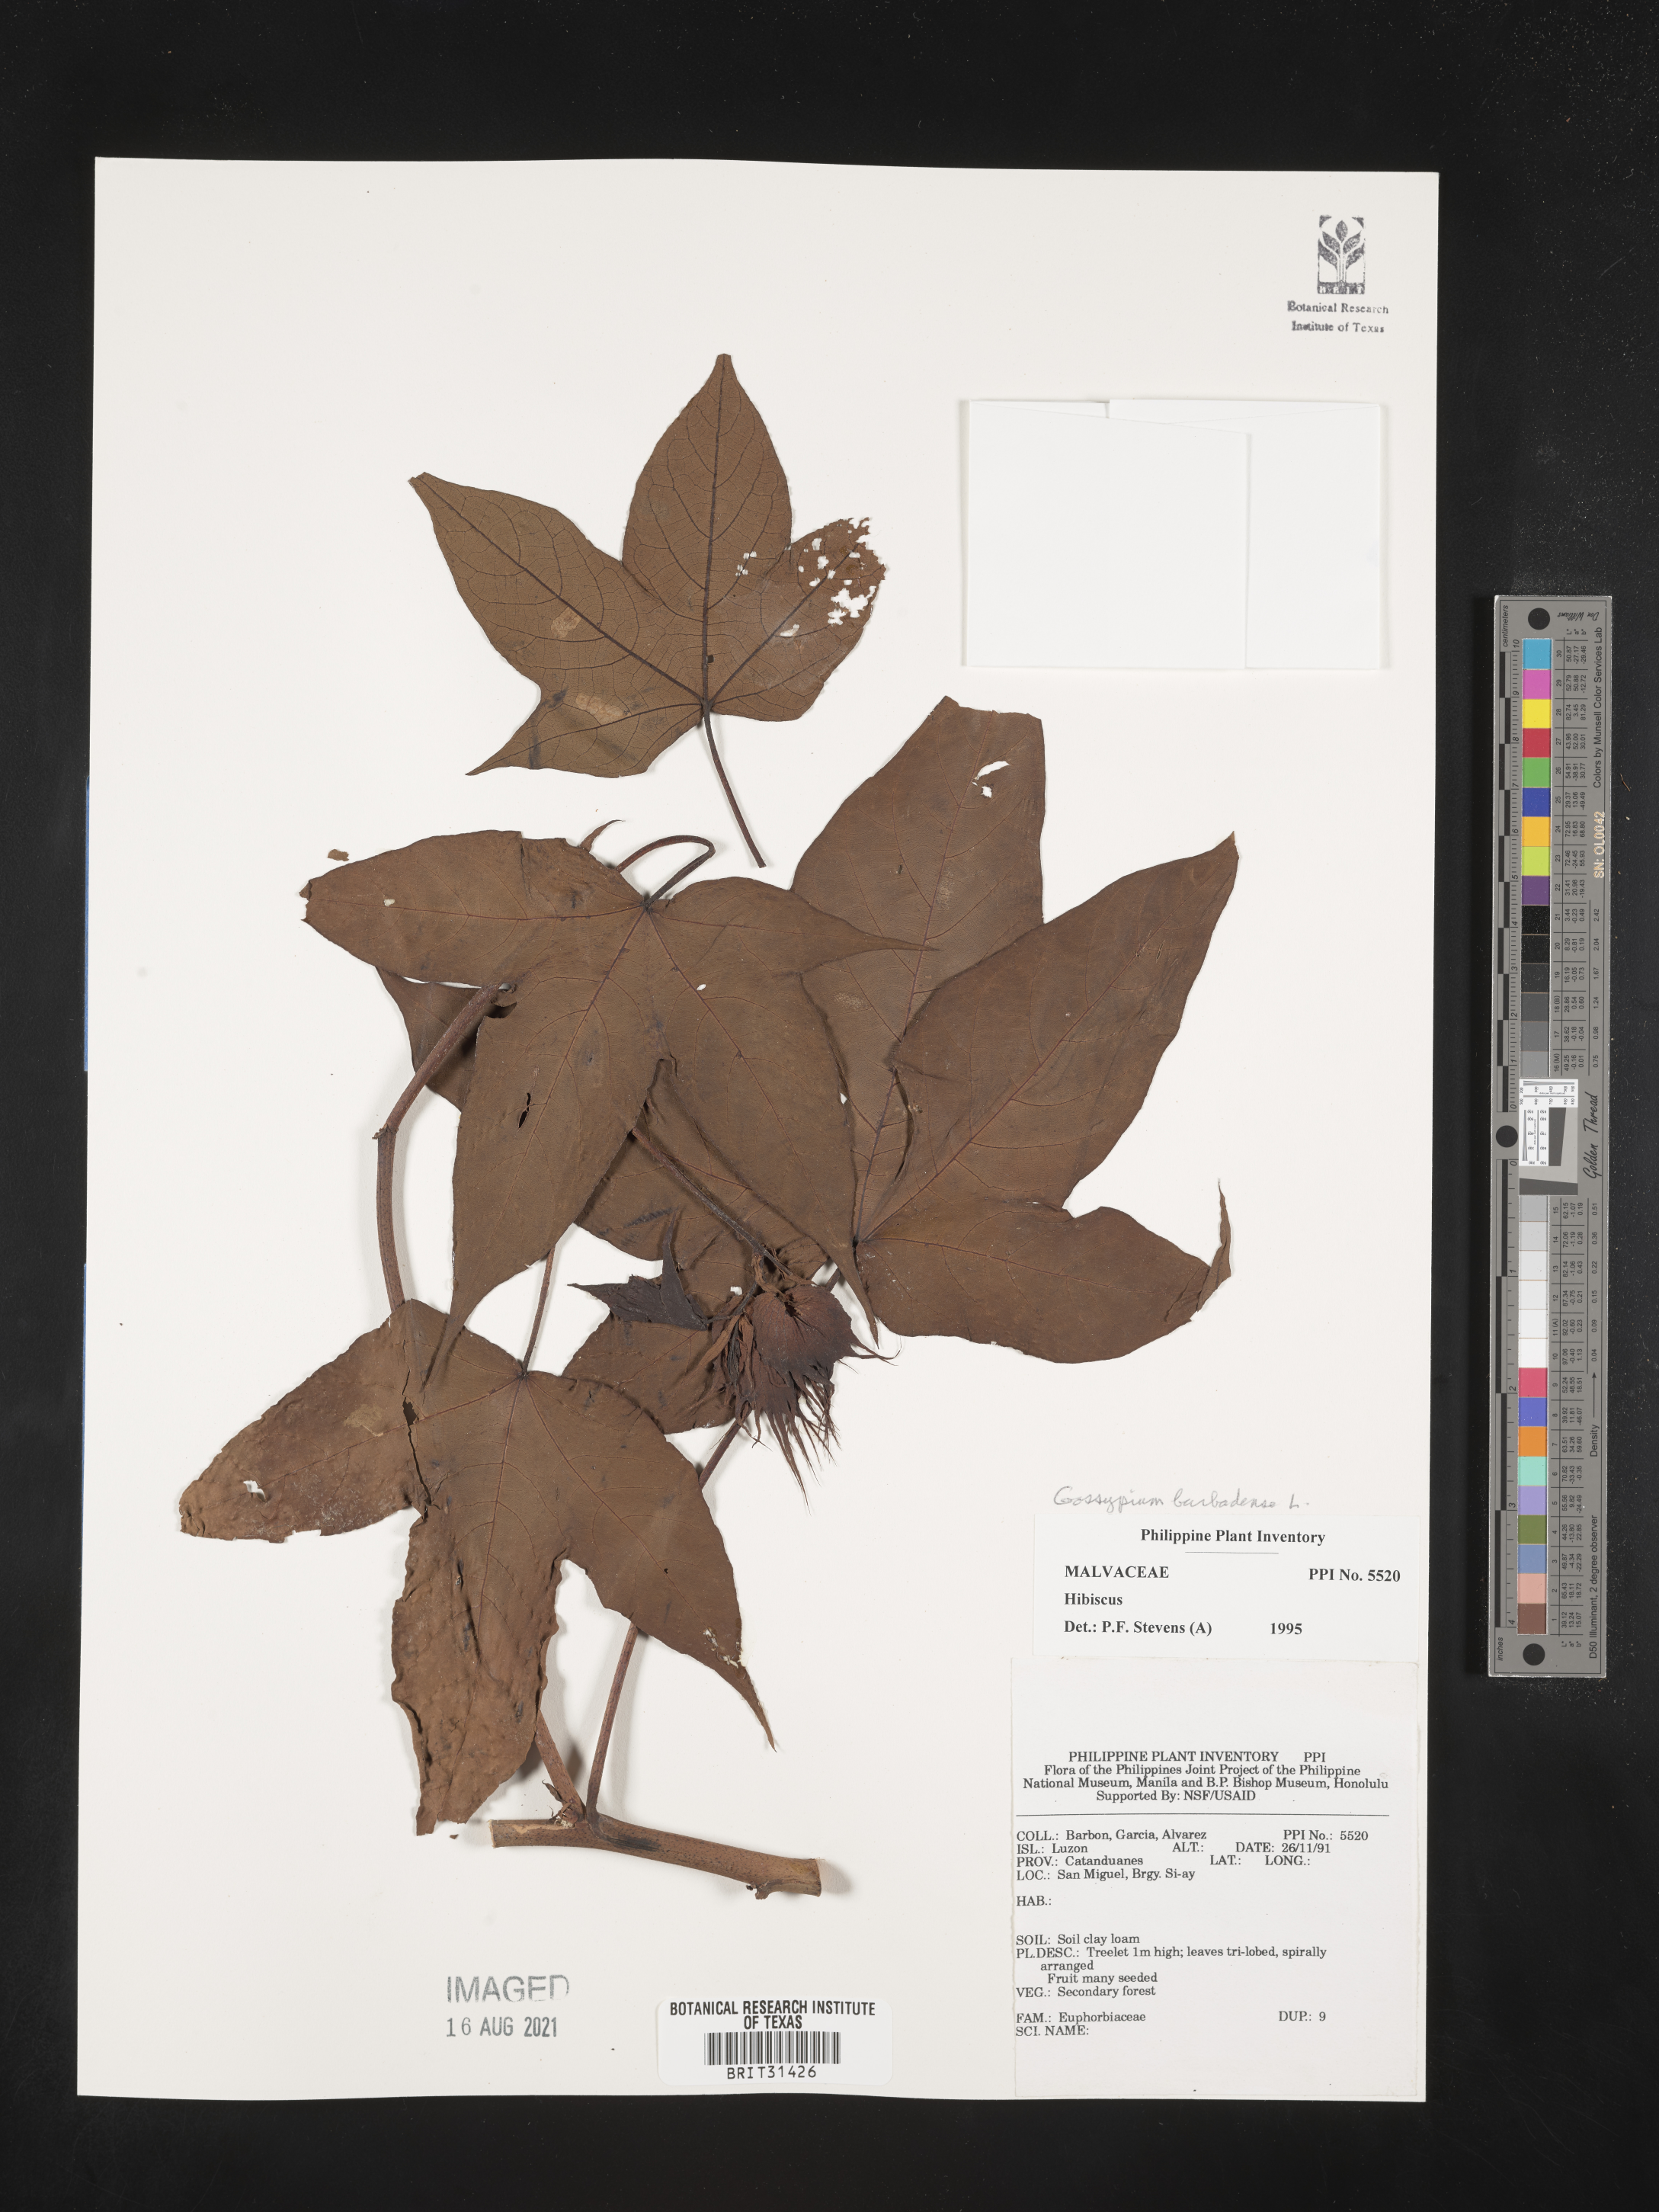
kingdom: Plantae
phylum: Tracheophyta
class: Magnoliopsida
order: Malvales
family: Malvaceae
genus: Gossypium
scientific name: Gossypium barbadense
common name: Creole cotton
